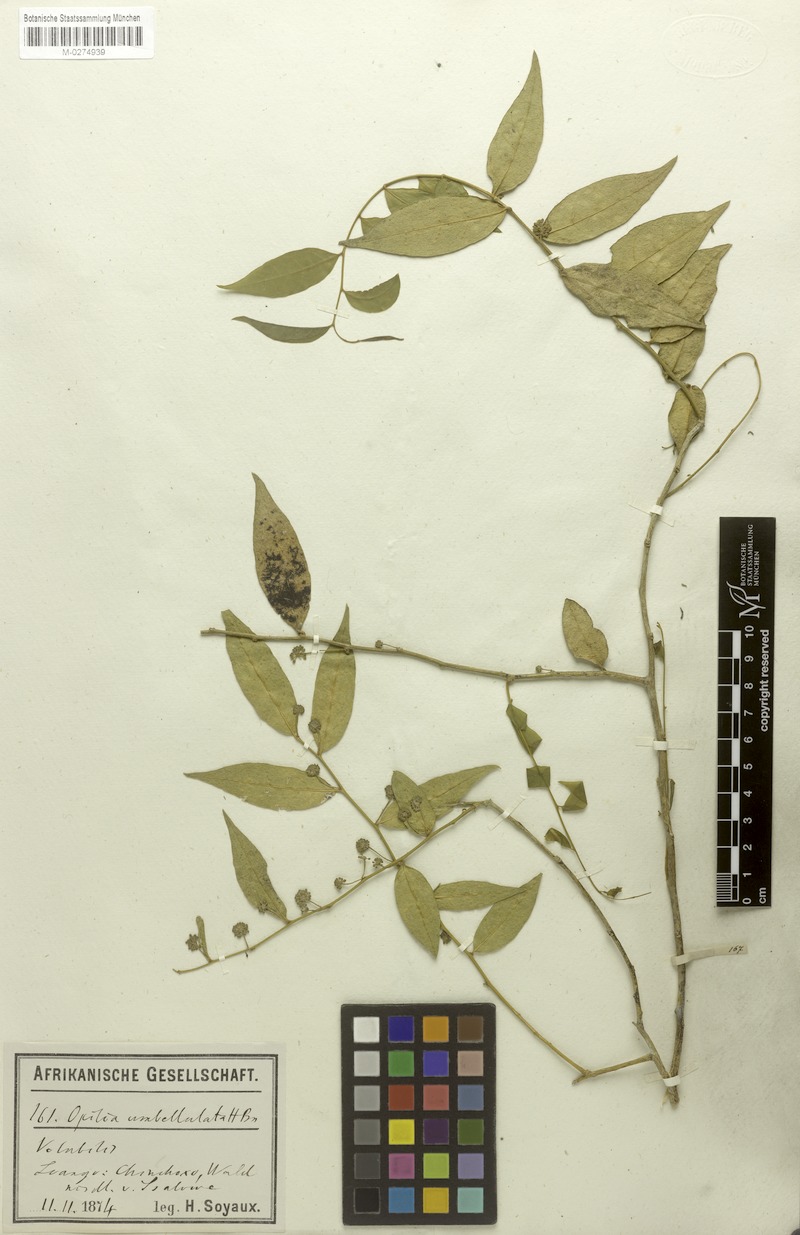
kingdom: Plantae
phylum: Tracheophyta
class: Magnoliopsida
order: Santalales
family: Opiliaceae
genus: Pentarhopalopilia
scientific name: Pentarhopalopilia marquesii
